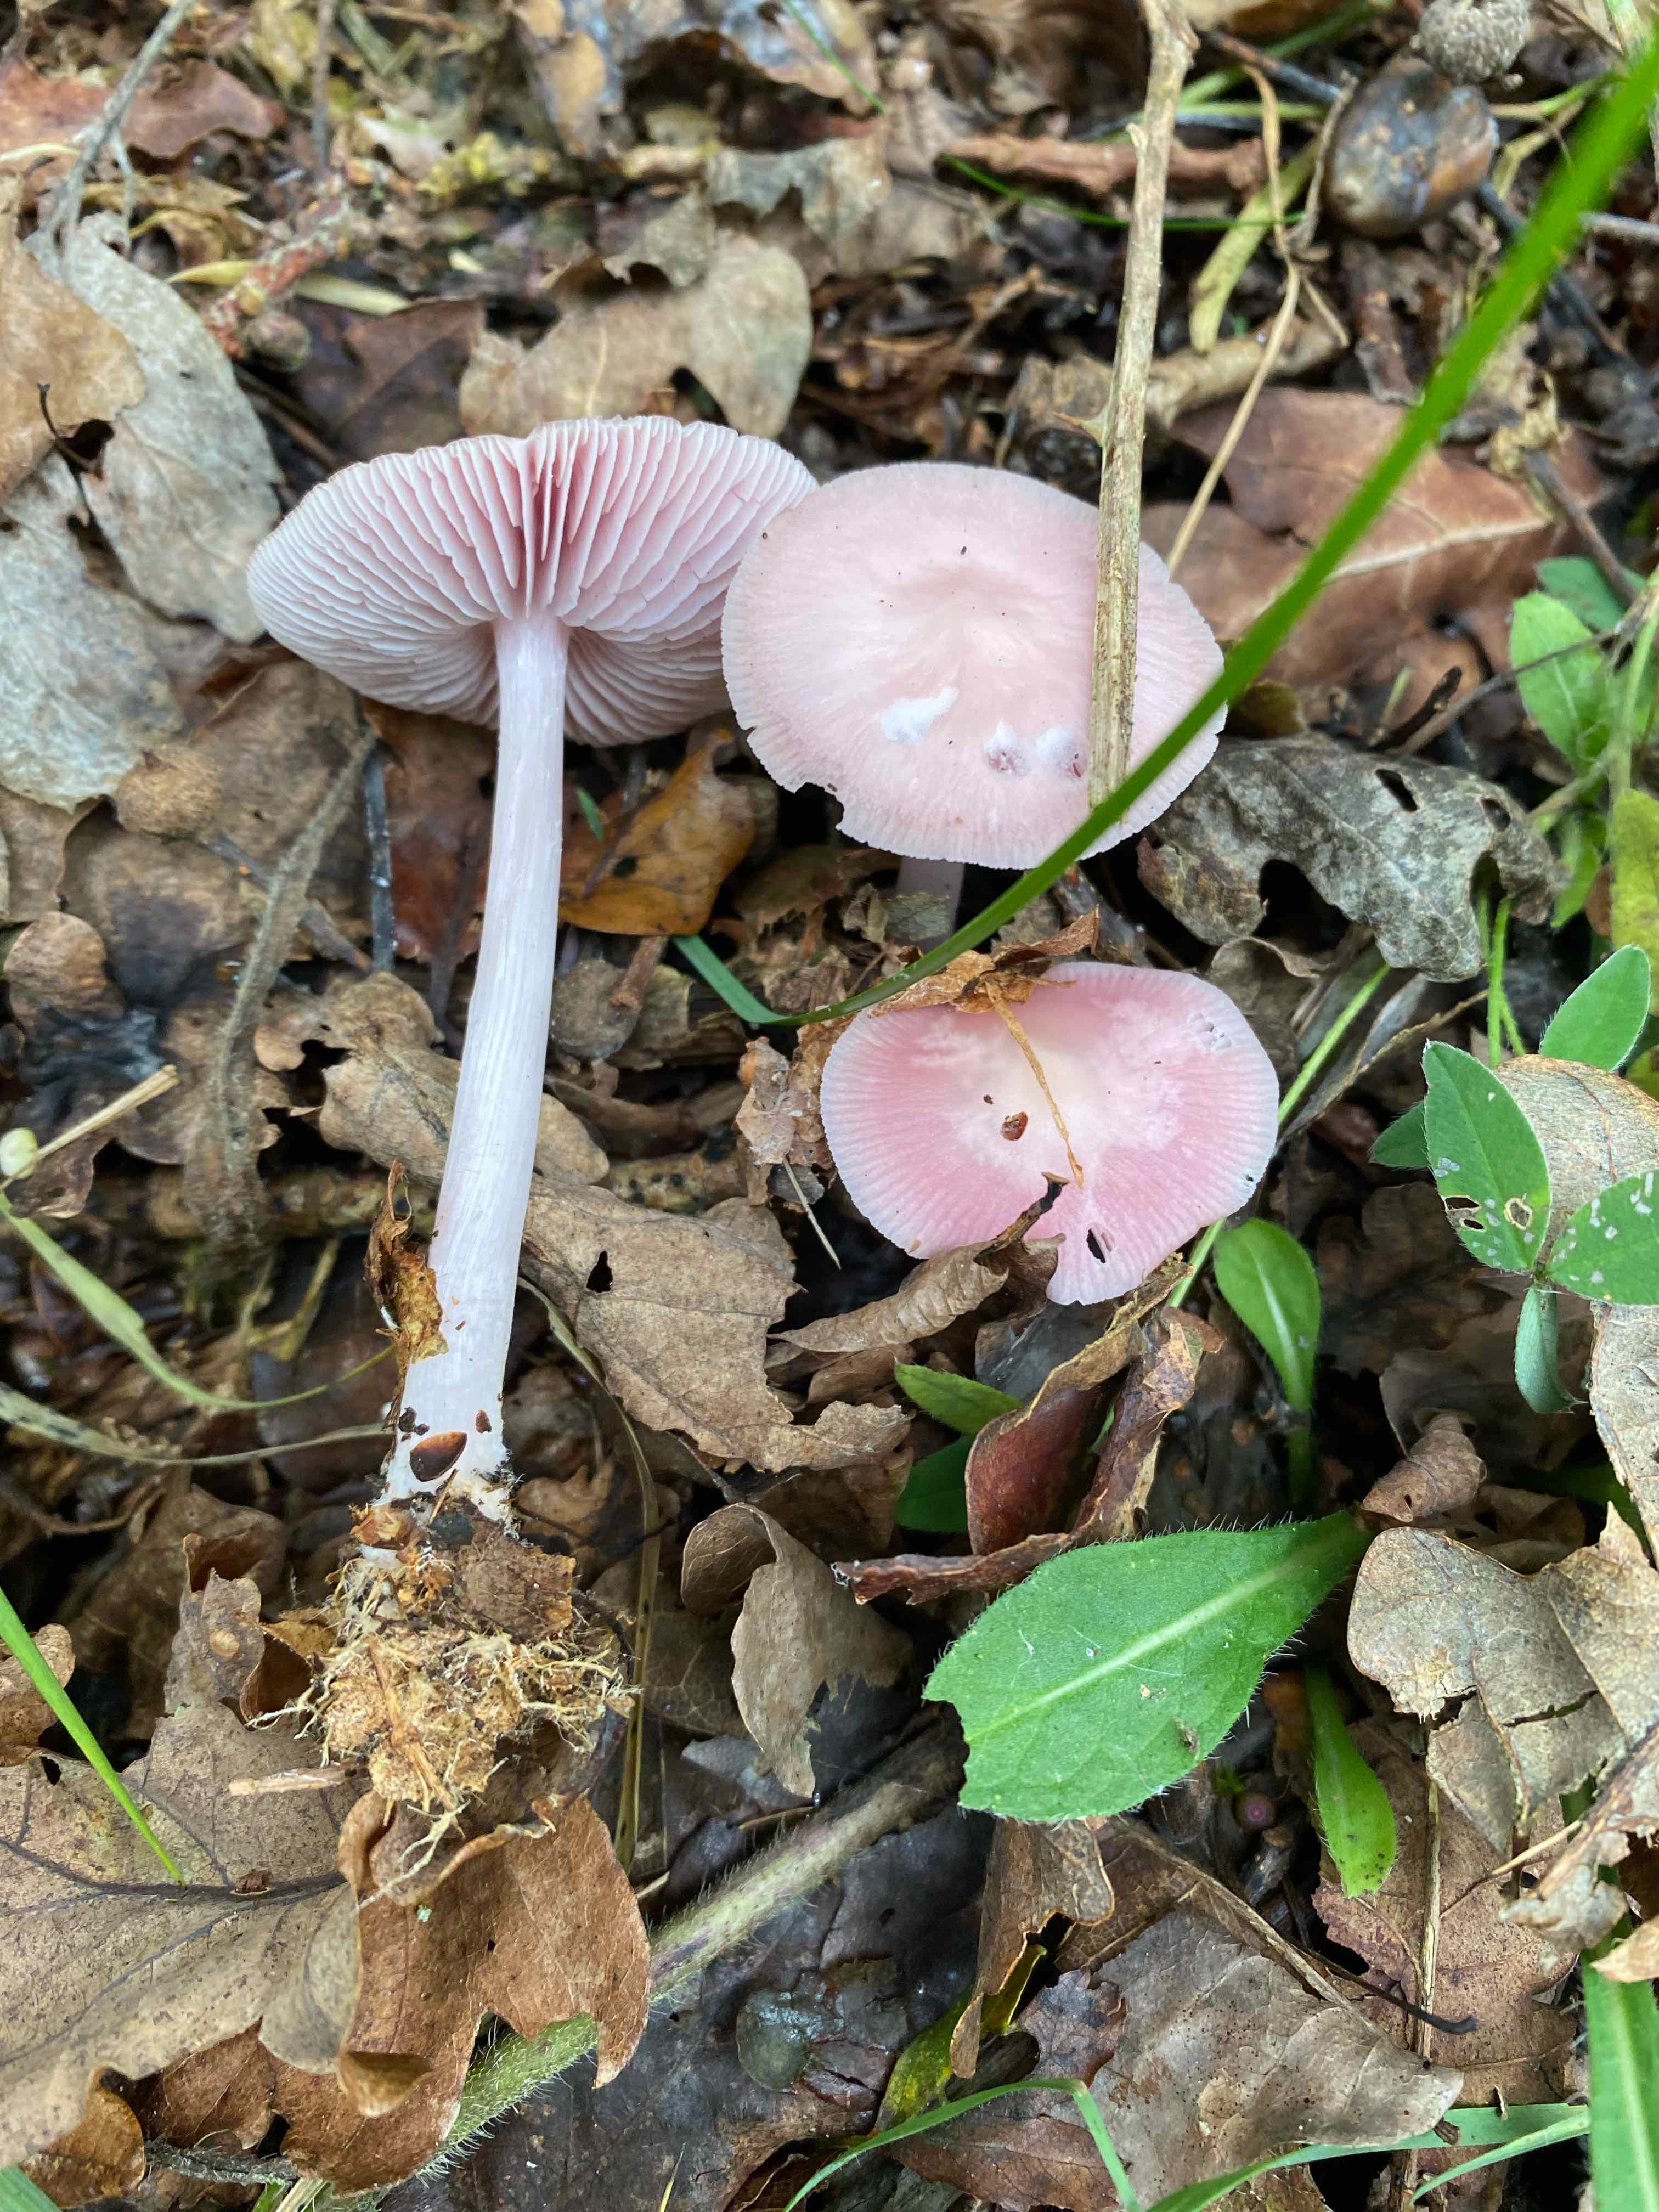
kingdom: Fungi
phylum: Basidiomycota
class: Agaricomycetes
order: Agaricales
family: Mycenaceae
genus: Mycena
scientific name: Mycena rosea
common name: rosa huesvamp
